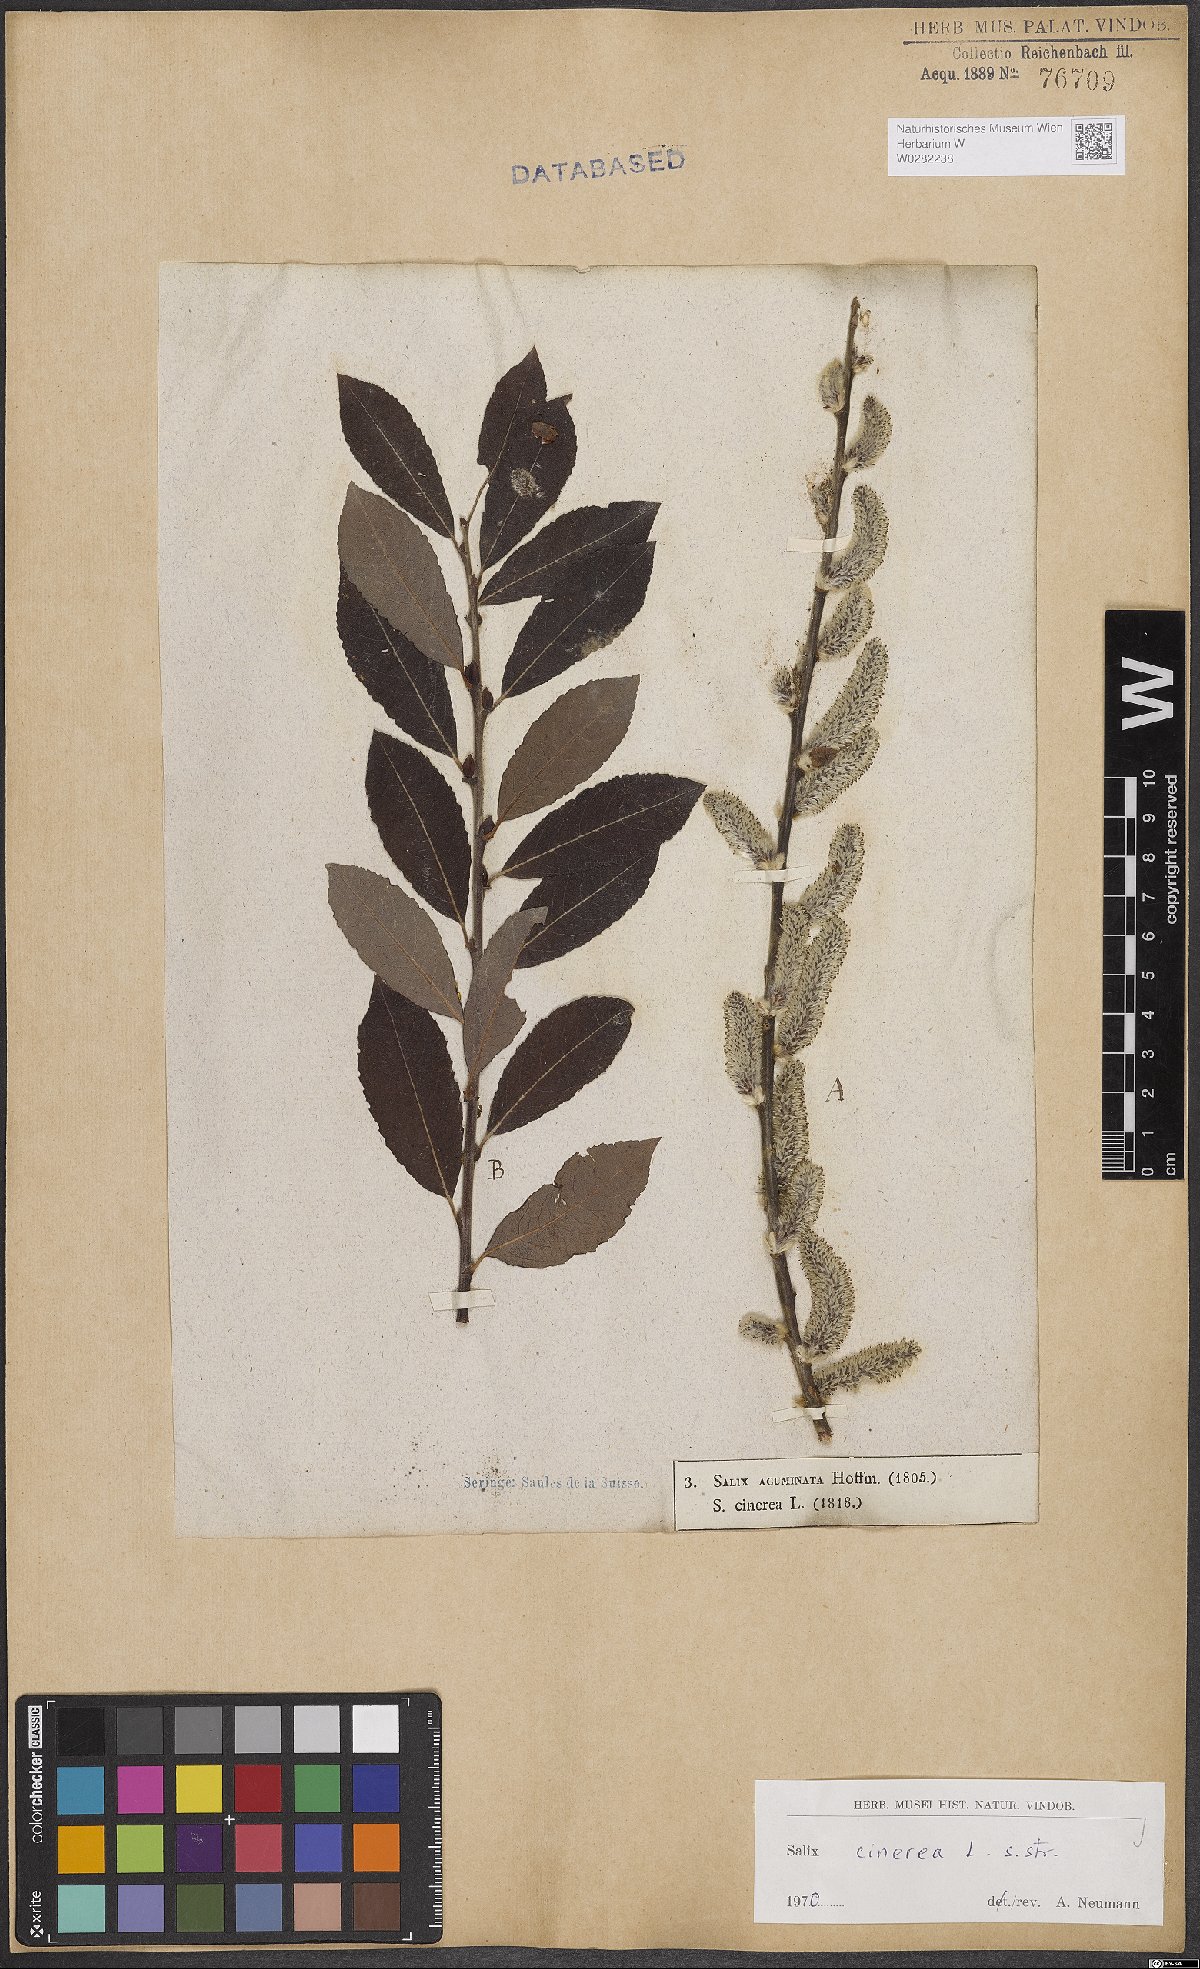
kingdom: Plantae
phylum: Tracheophyta
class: Magnoliopsida
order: Malpighiales
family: Salicaceae
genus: Salix
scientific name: Salix cinerea
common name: Common sallow
